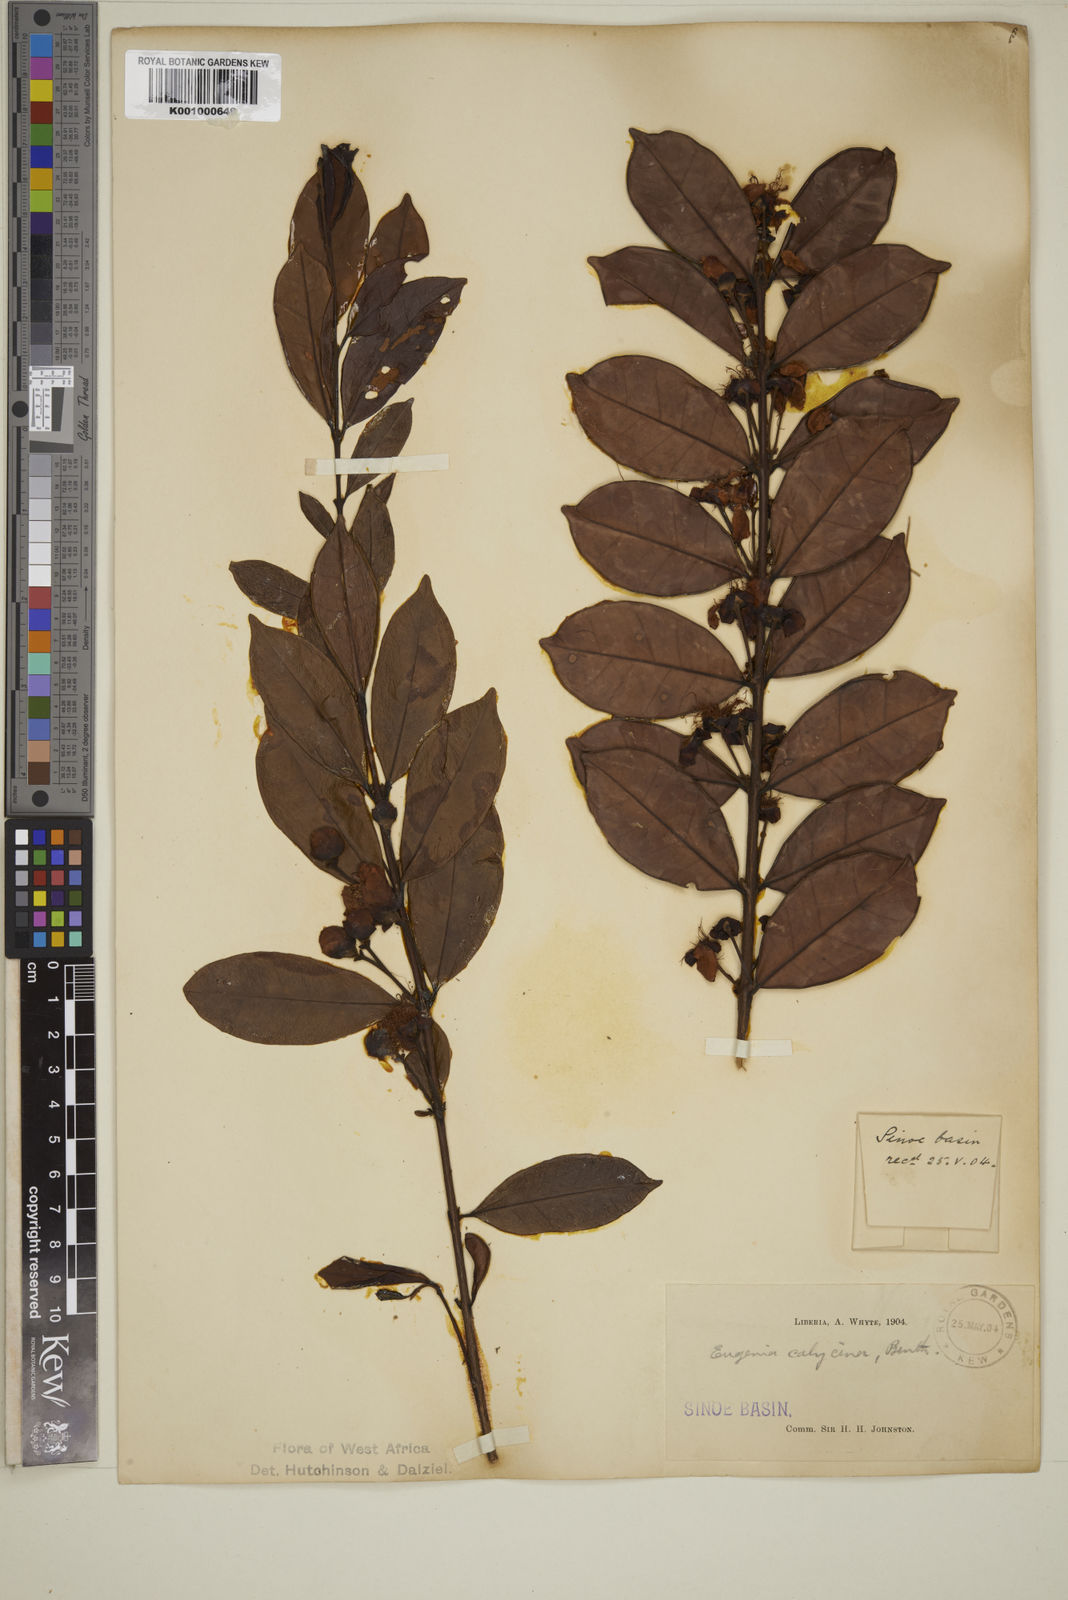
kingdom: Plantae
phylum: Tracheophyta
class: Magnoliopsida
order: Myrtales
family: Myrtaceae
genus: Eugenia
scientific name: Eugenia liberiana
